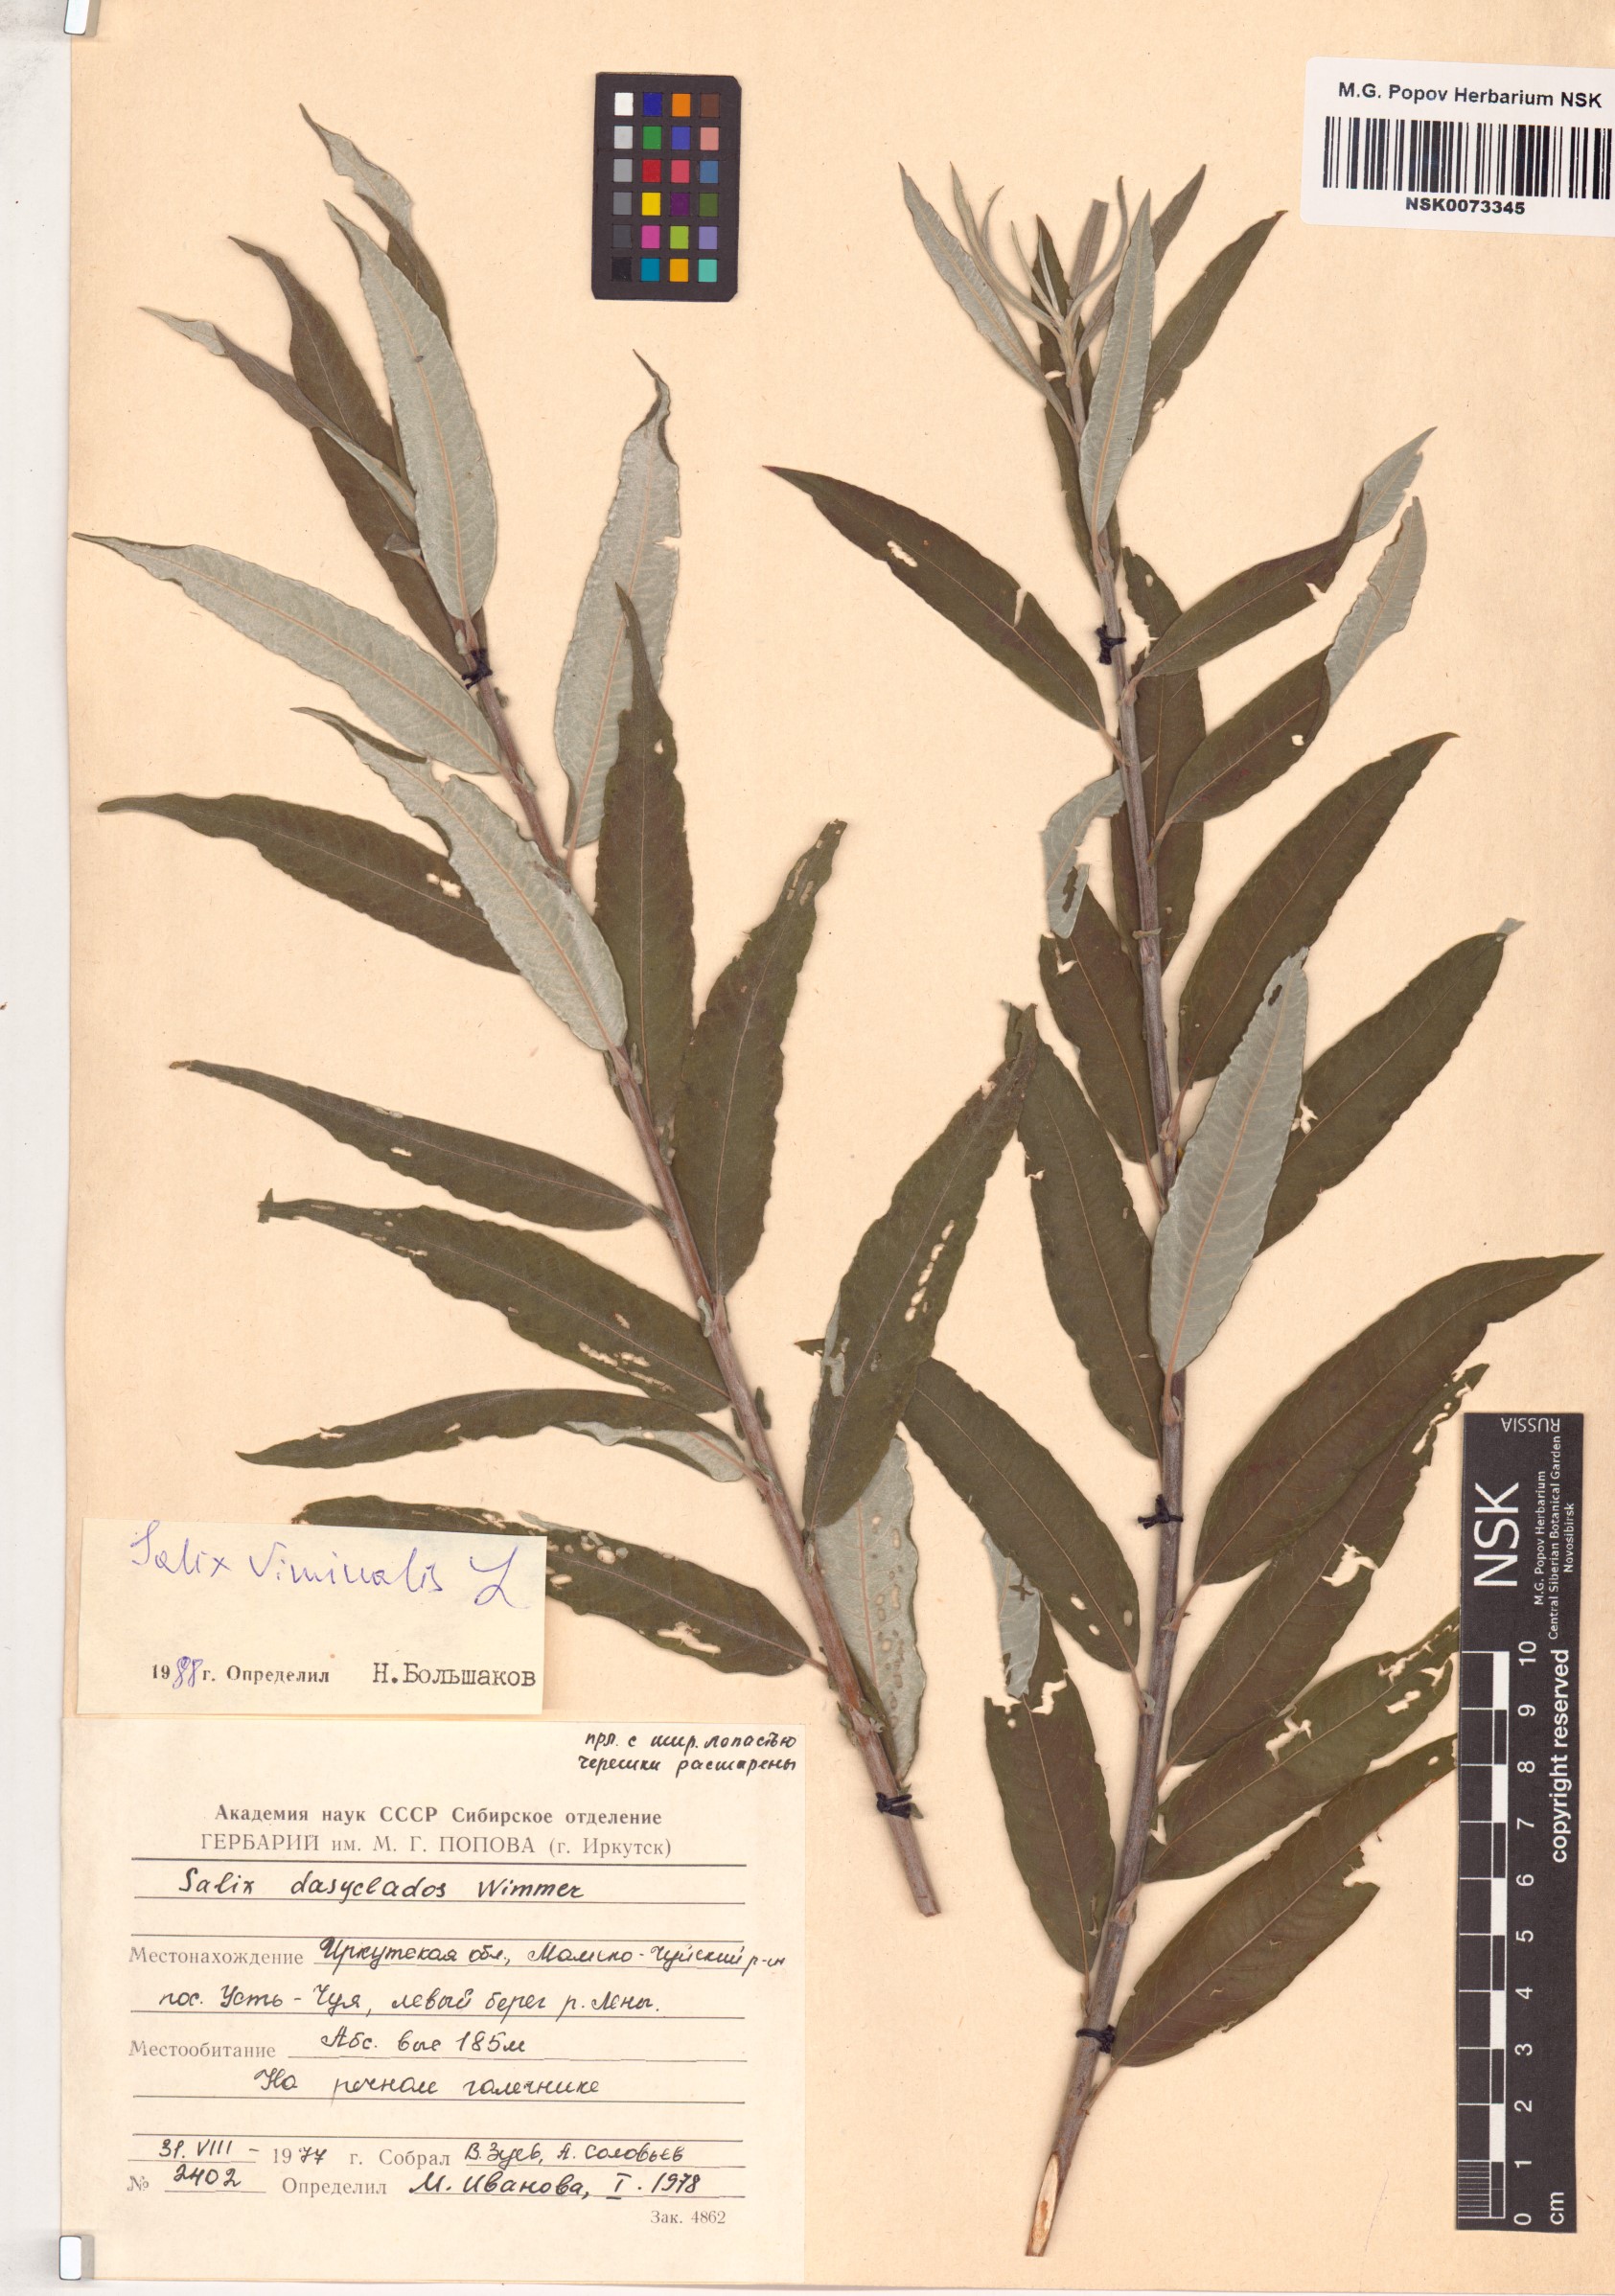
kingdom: Plantae
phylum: Tracheophyta
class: Magnoliopsida
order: Malpighiales
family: Salicaceae
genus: Salix
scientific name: Salix viminalis
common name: Osier
